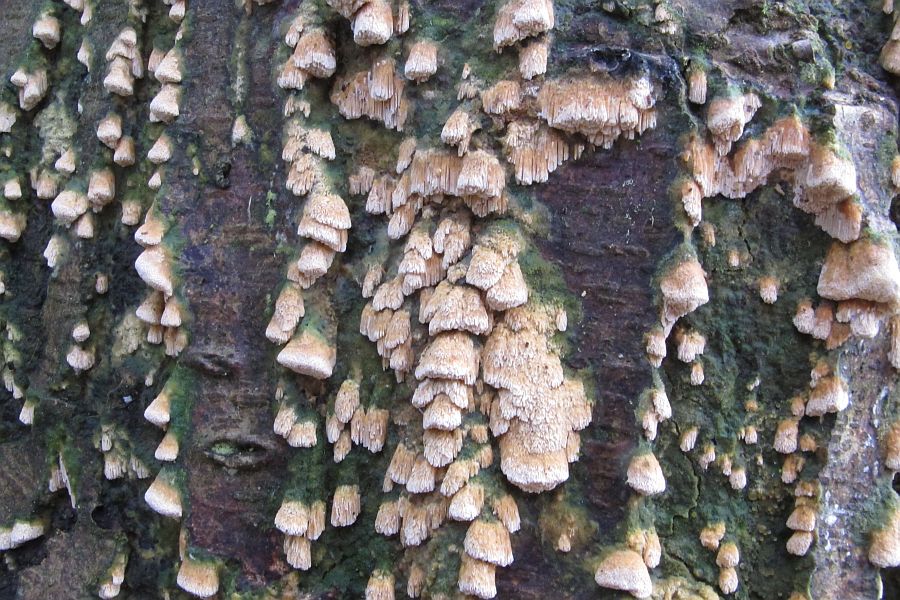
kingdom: Fungi
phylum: Basidiomycota
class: Agaricomycetes
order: Hymenochaetales
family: Schizoporaceae
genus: Xylodon
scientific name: Xylodon flaviporus
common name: gulporet tandsvamp
